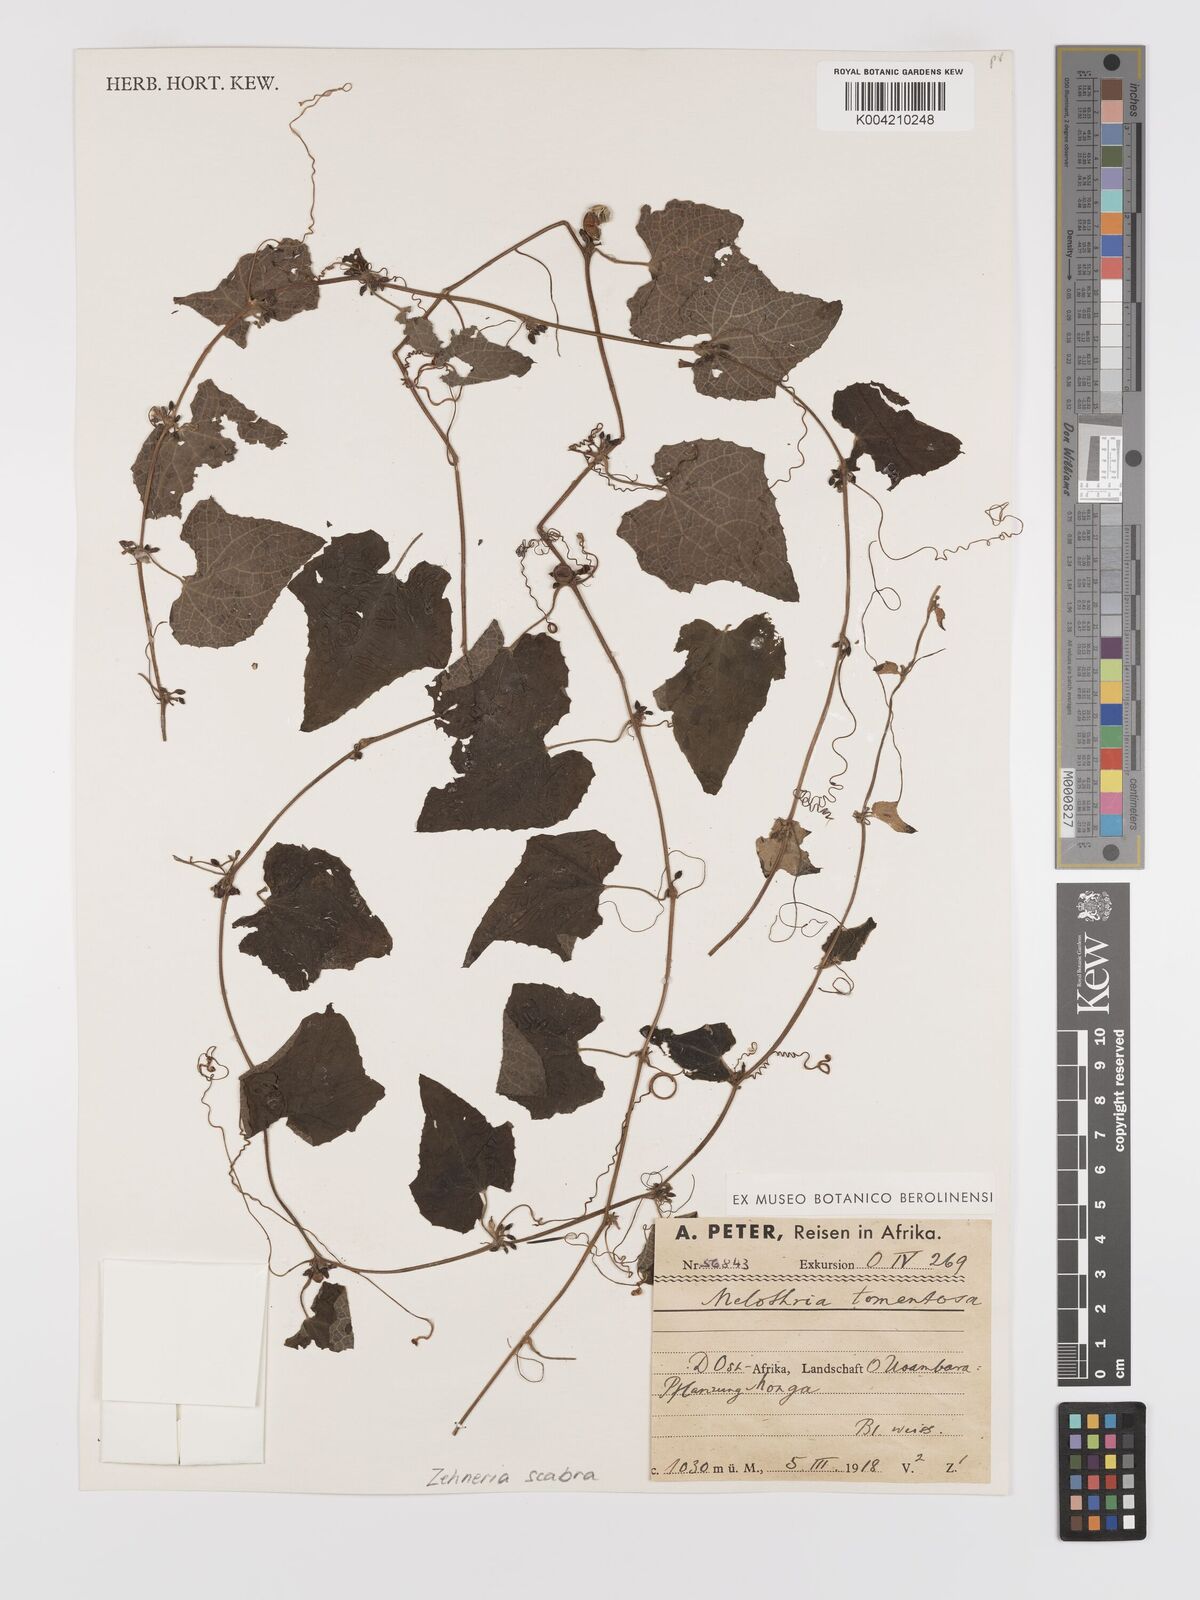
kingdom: Plantae
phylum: Tracheophyta
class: Magnoliopsida
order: Cucurbitales
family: Cucurbitaceae
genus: Zehneria
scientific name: Zehneria scabra
